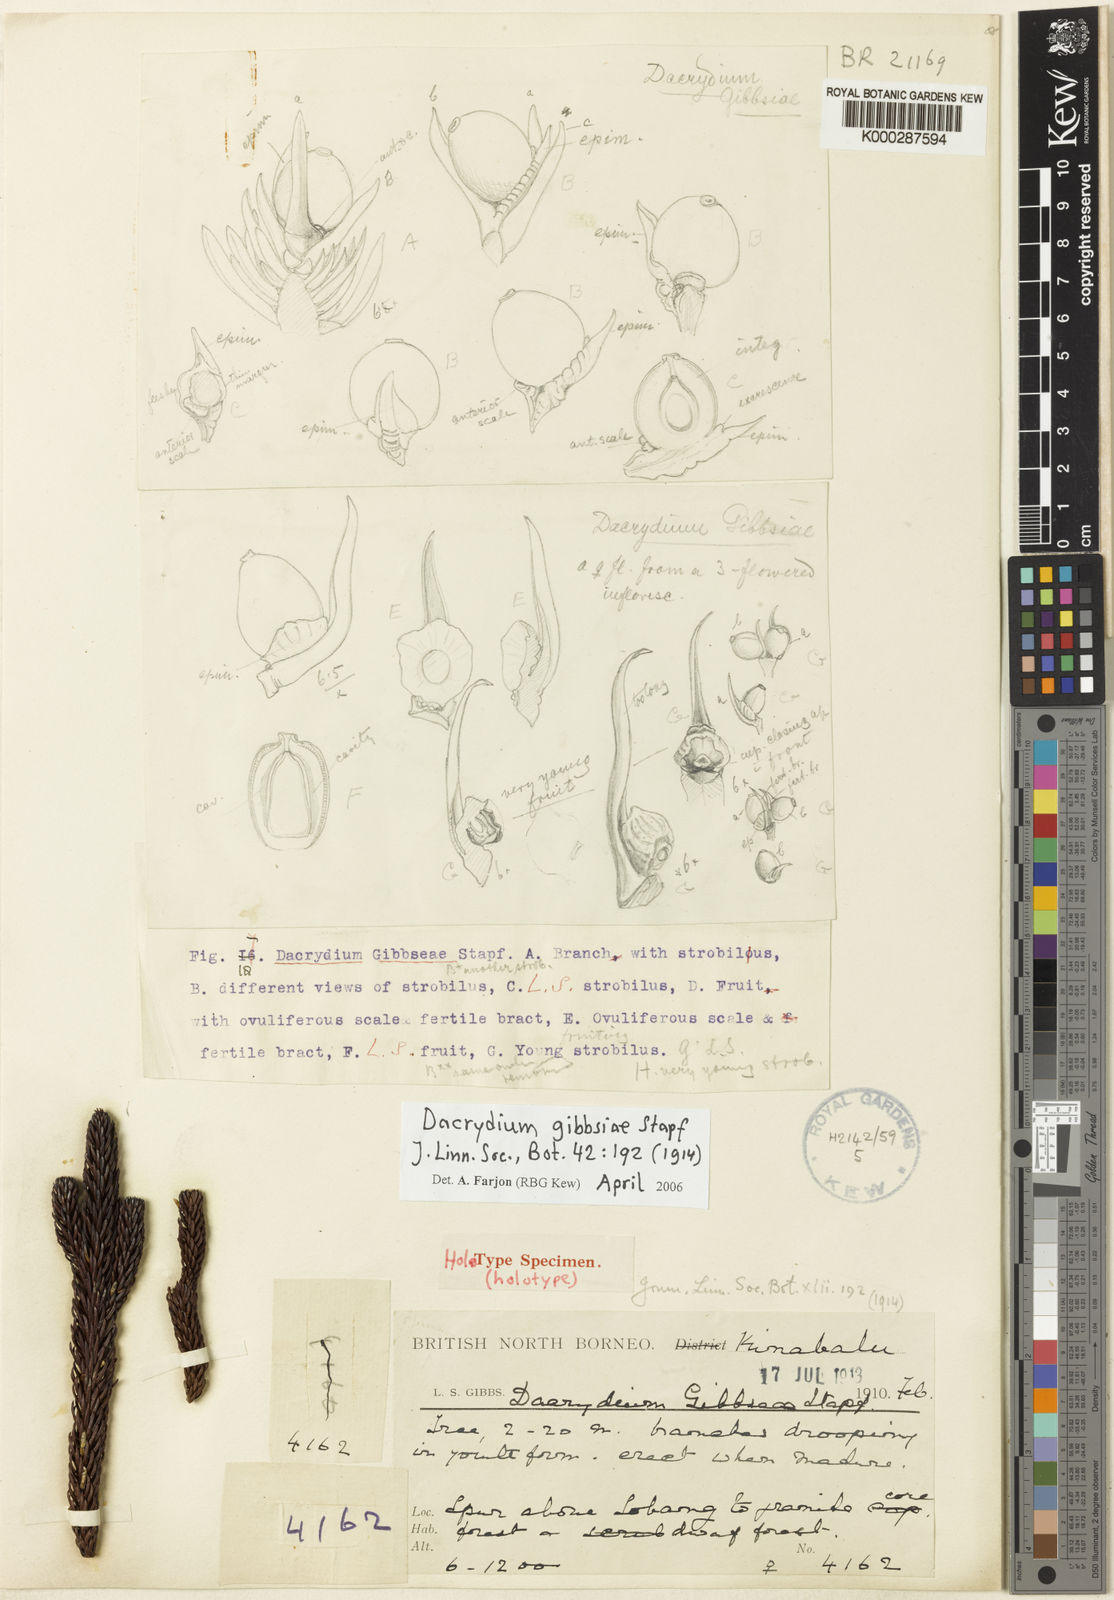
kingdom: Plantae
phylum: Tracheophyta
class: Pinopsida
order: Pinales
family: Podocarpaceae
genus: Dacrydium
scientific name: Dacrydium gibbsiae
